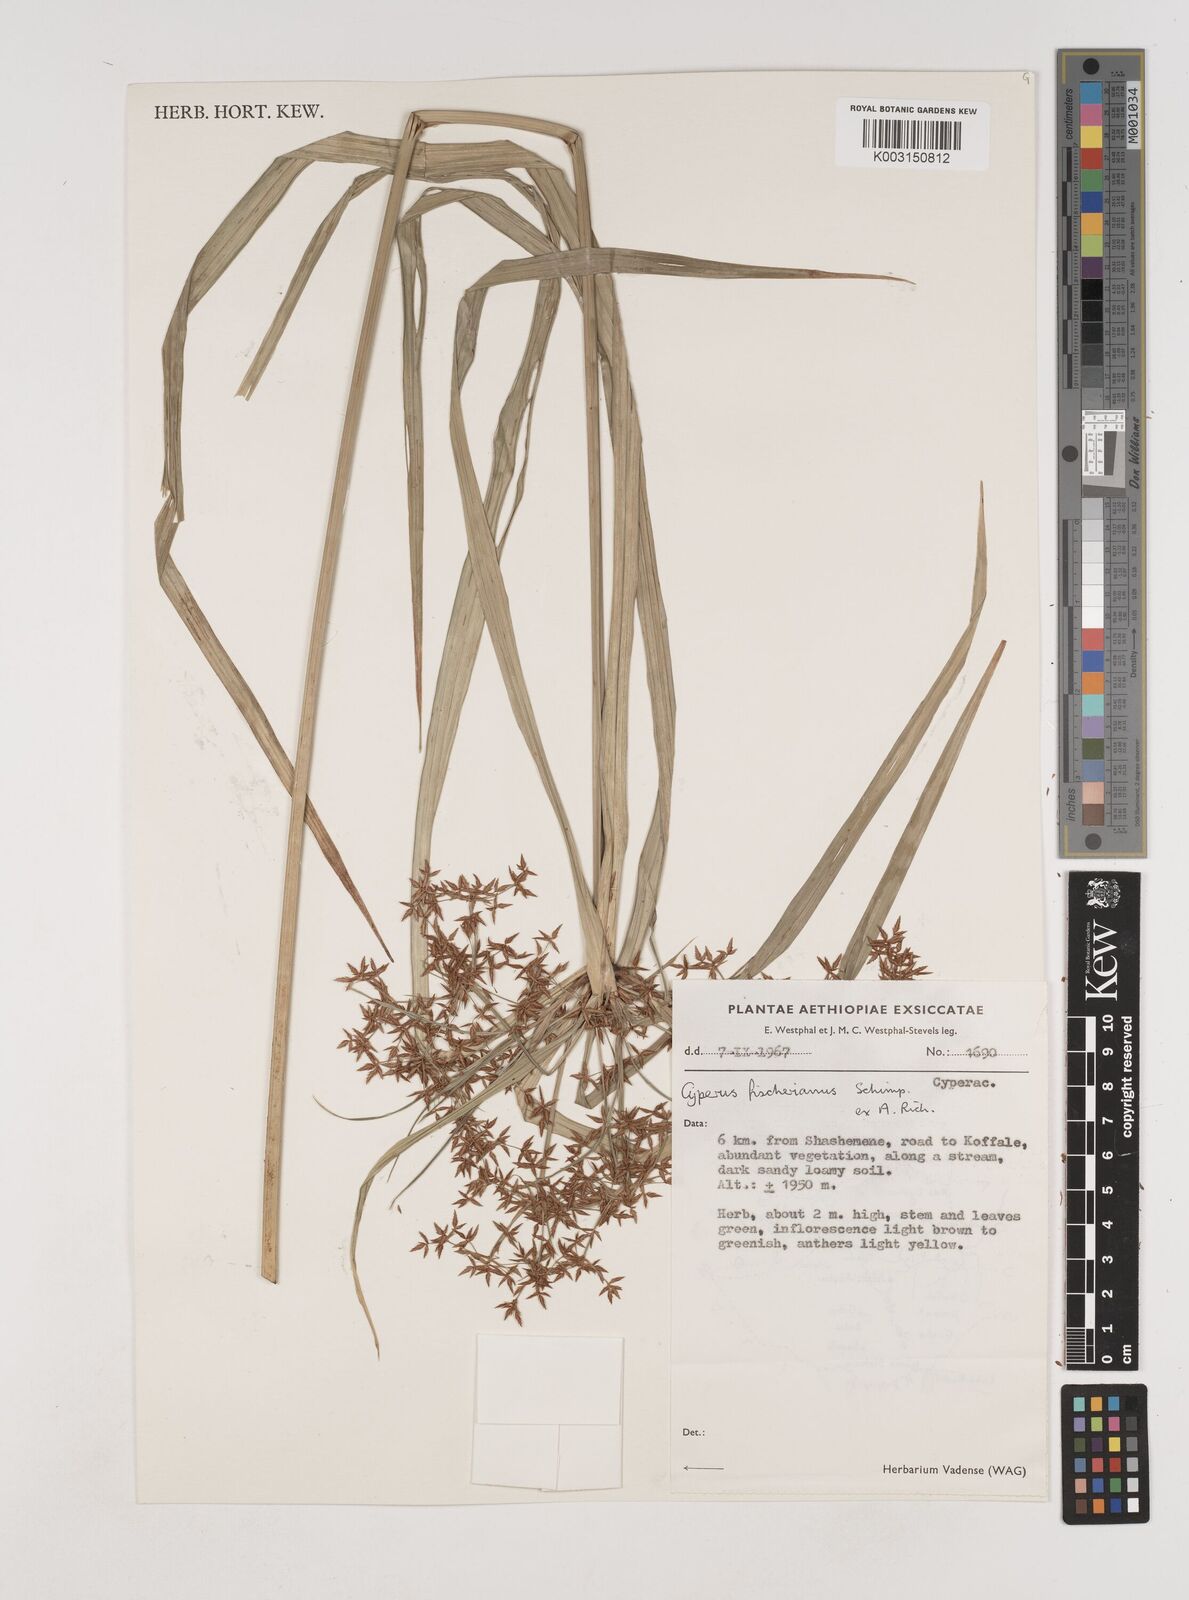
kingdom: Plantae
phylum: Tracheophyta
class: Liliopsida
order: Poales
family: Cyperaceae
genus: Cyperus
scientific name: Cyperus fischerianus
